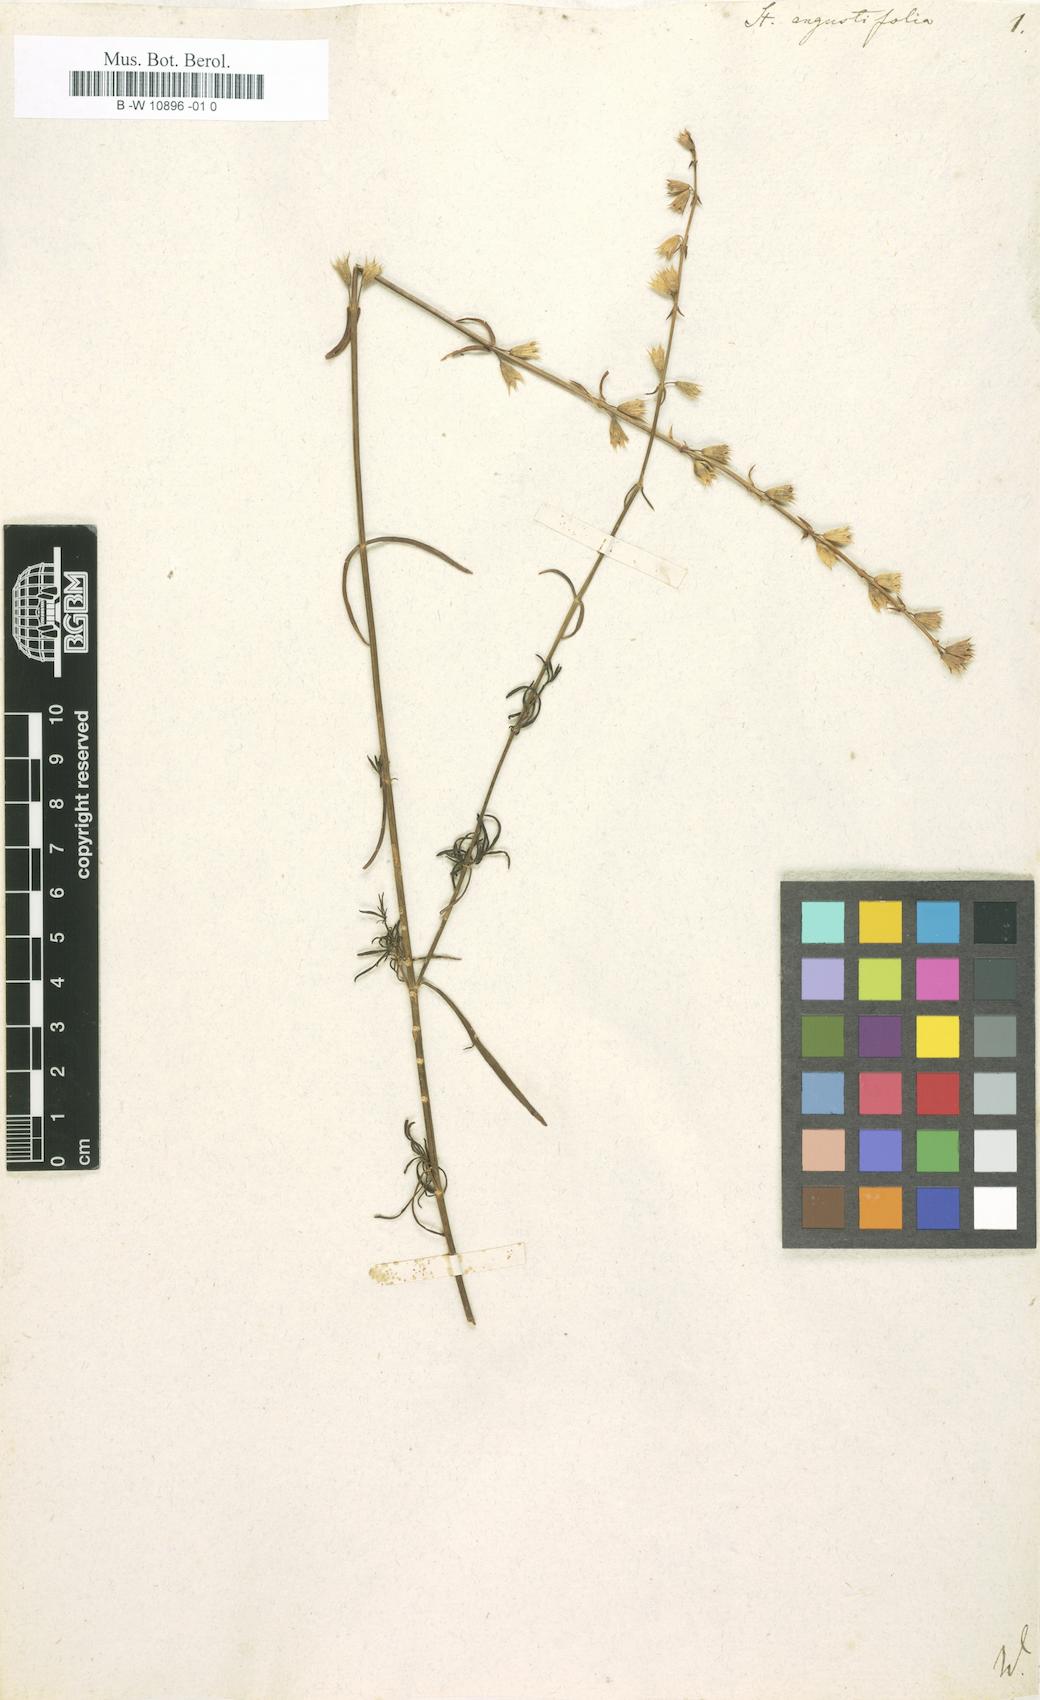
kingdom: Plantae
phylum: Tracheophyta
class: Magnoliopsida
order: Lamiales
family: Lamiaceae
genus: Stachys
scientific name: Stachys angustifolia
